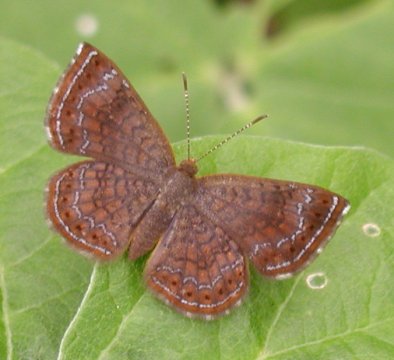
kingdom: Animalia
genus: Calephelis
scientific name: Calephelis
